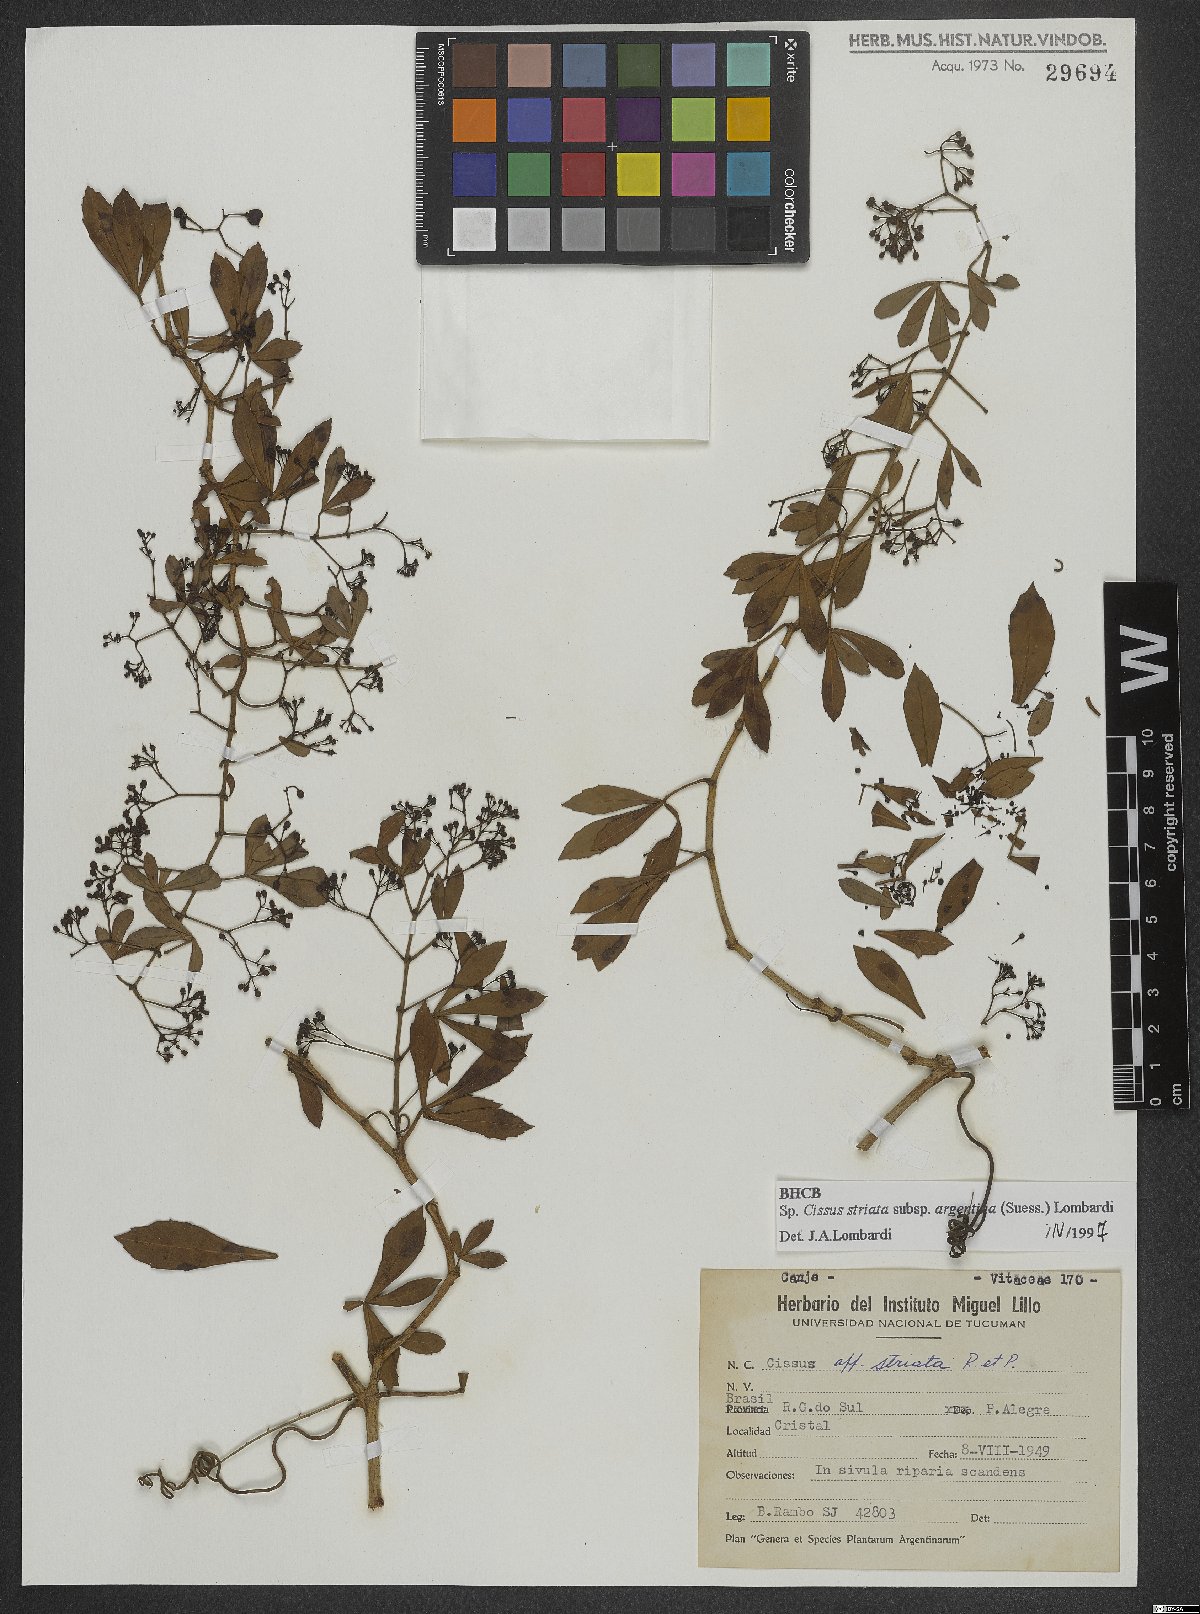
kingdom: Plantae
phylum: Tracheophyta
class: Magnoliopsida
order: Vitales
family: Vitaceae
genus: Clematicissus
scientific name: Clematicissus striata
